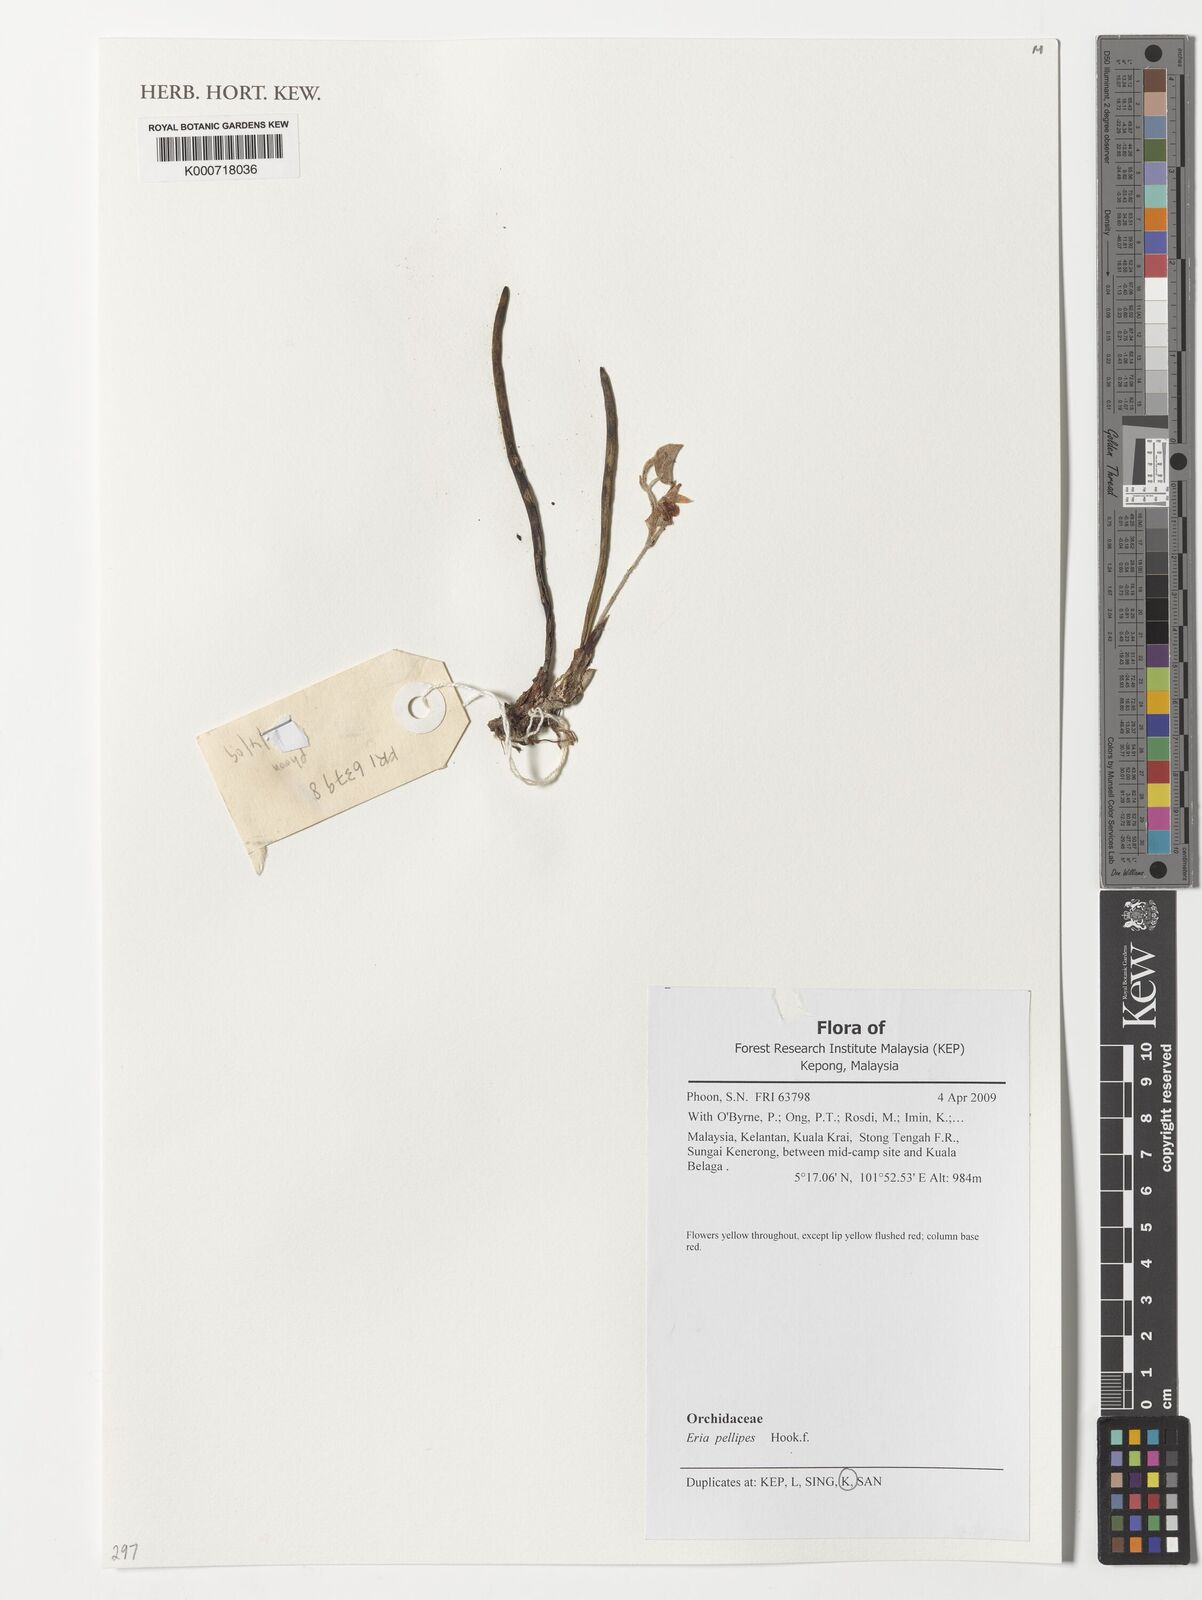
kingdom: Plantae
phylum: Tracheophyta
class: Liliopsida
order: Asparagales
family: Orchidaceae
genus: Strongyleria
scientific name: Strongyleria pellipes
